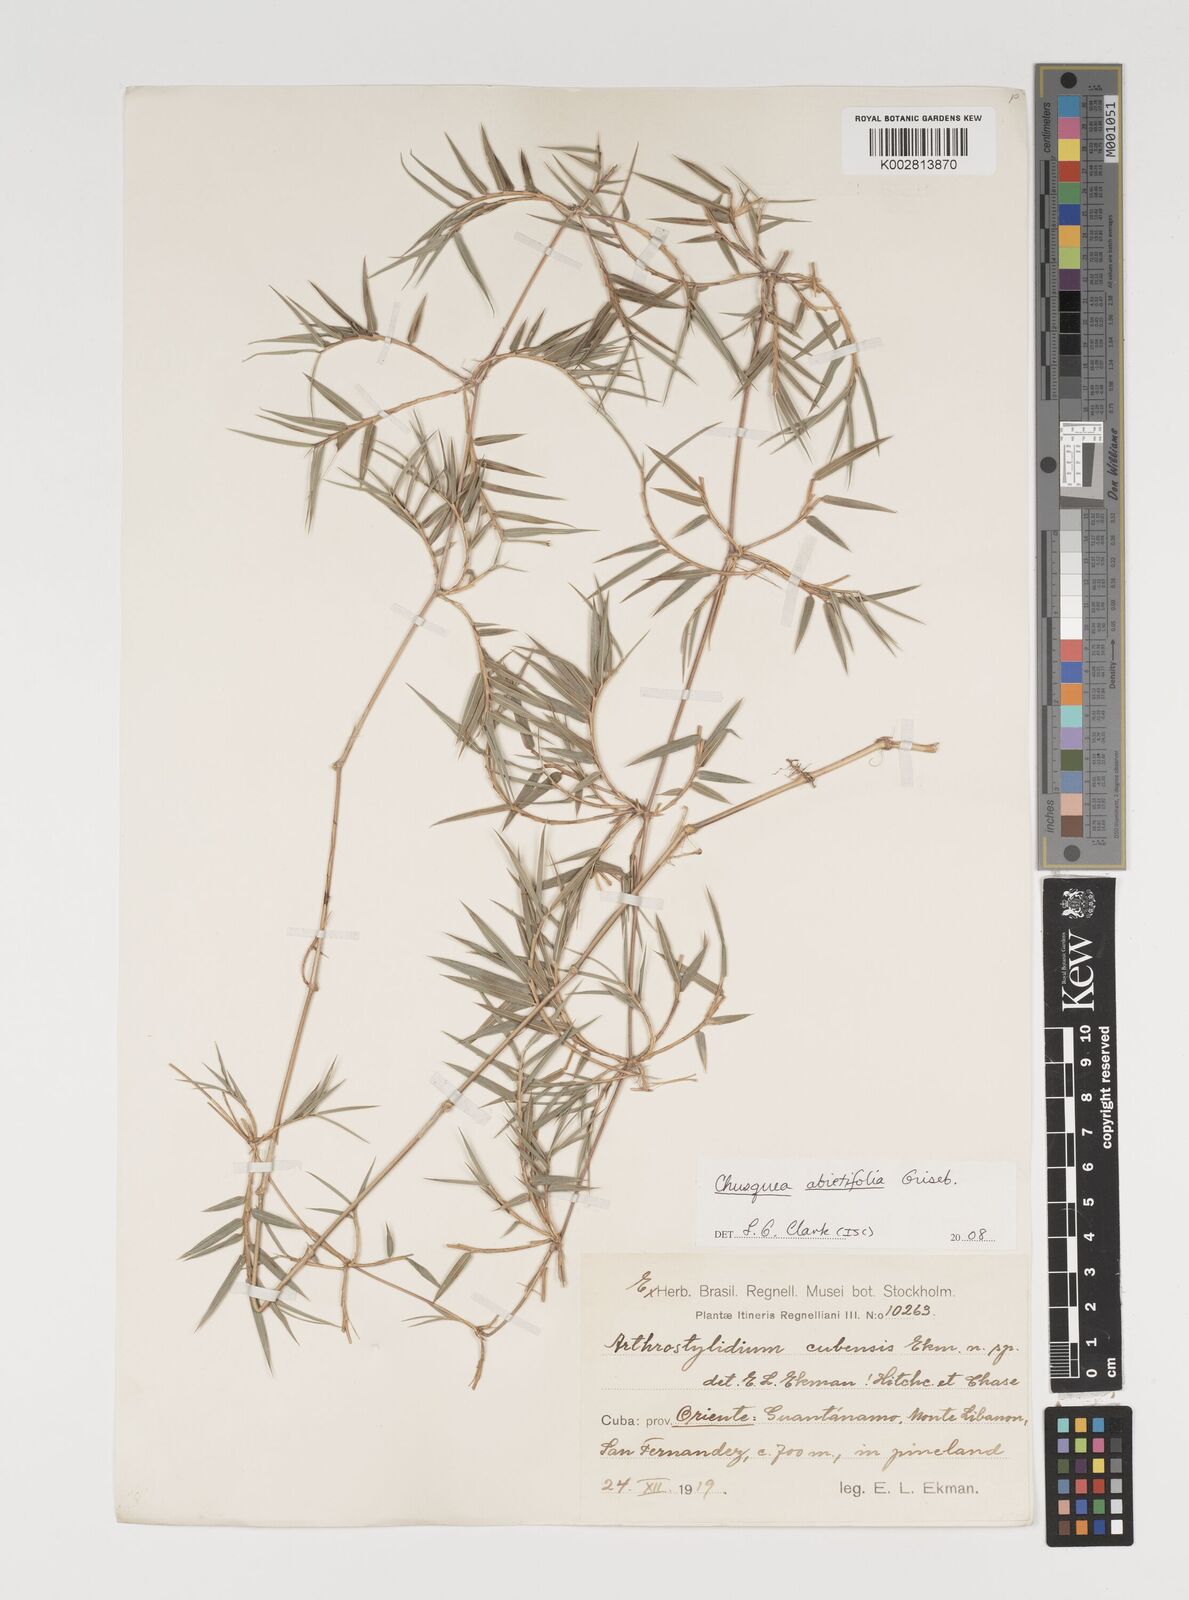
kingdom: Plantae
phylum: Tracheophyta
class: Liliopsida
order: Poales
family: Poaceae
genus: Chusquea
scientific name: Chusquea abietifolia
